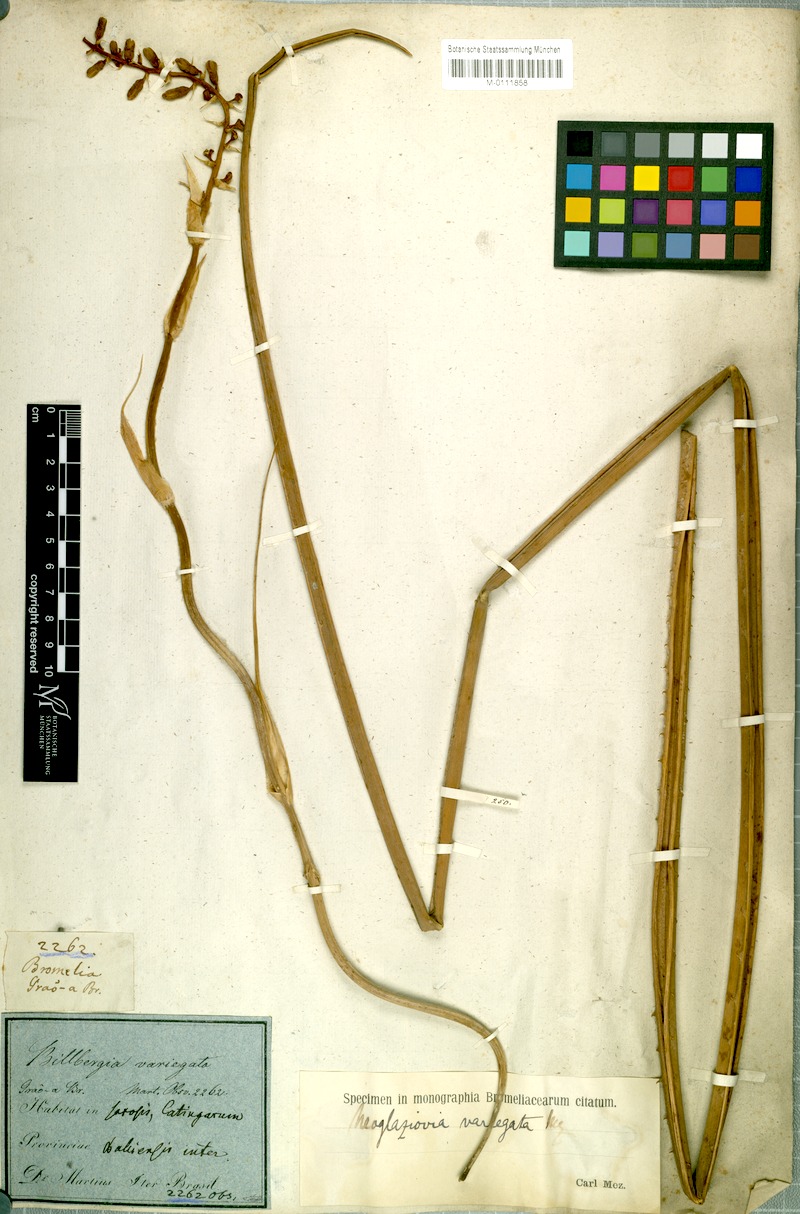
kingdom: Plantae
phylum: Tracheophyta
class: Liliopsida
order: Poales
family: Bromeliaceae
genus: Neoglaziovia
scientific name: Neoglaziovia variegata
